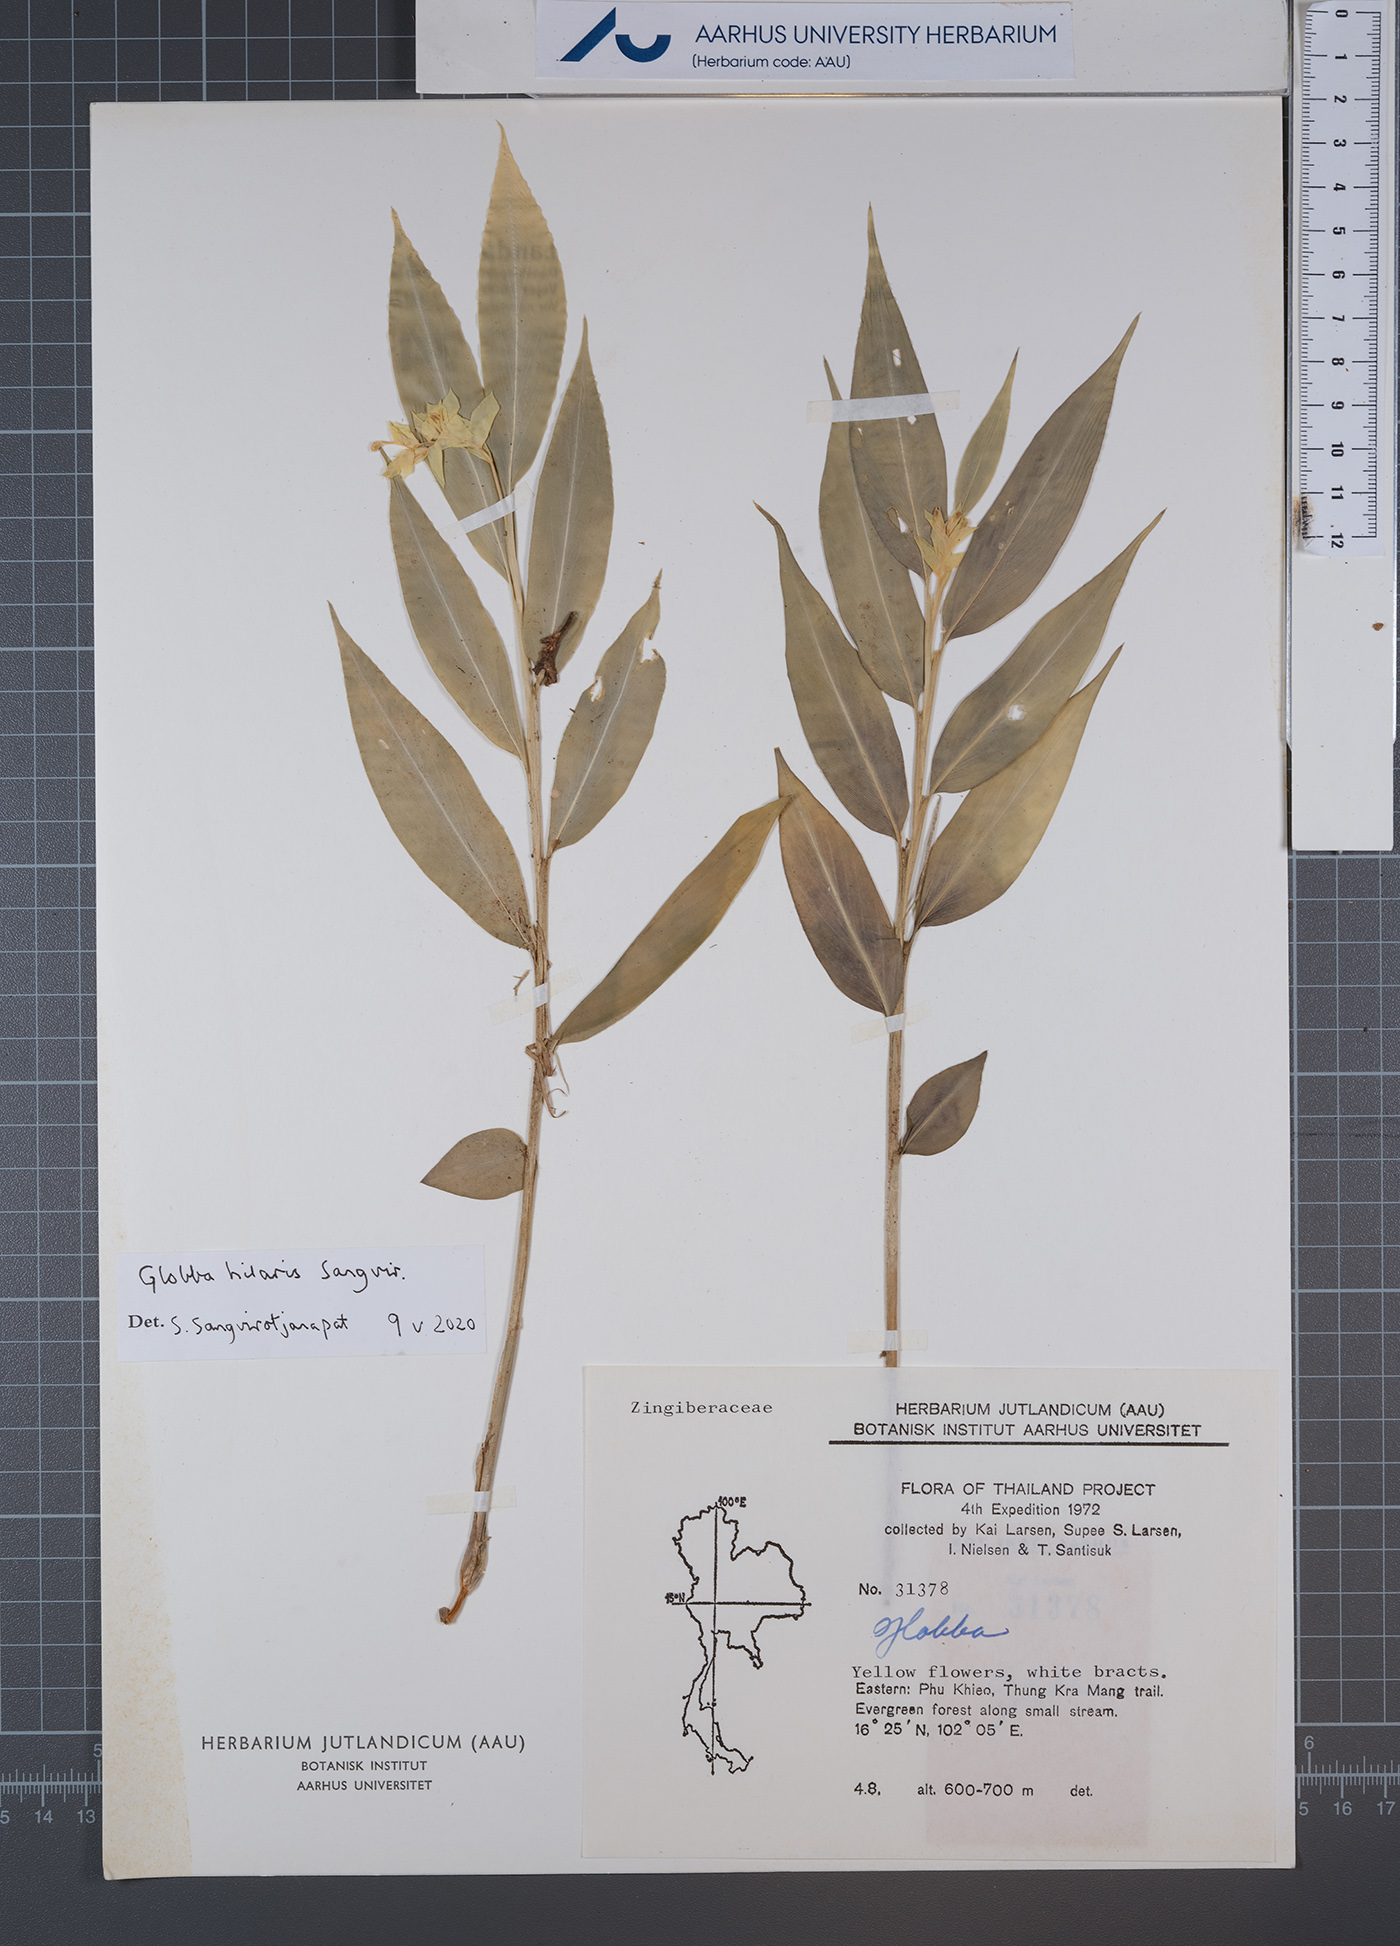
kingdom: Plantae
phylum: Tracheophyta
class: Liliopsida
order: Zingiberales
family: Zingiberaceae
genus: Globba
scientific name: Globba hilaris
